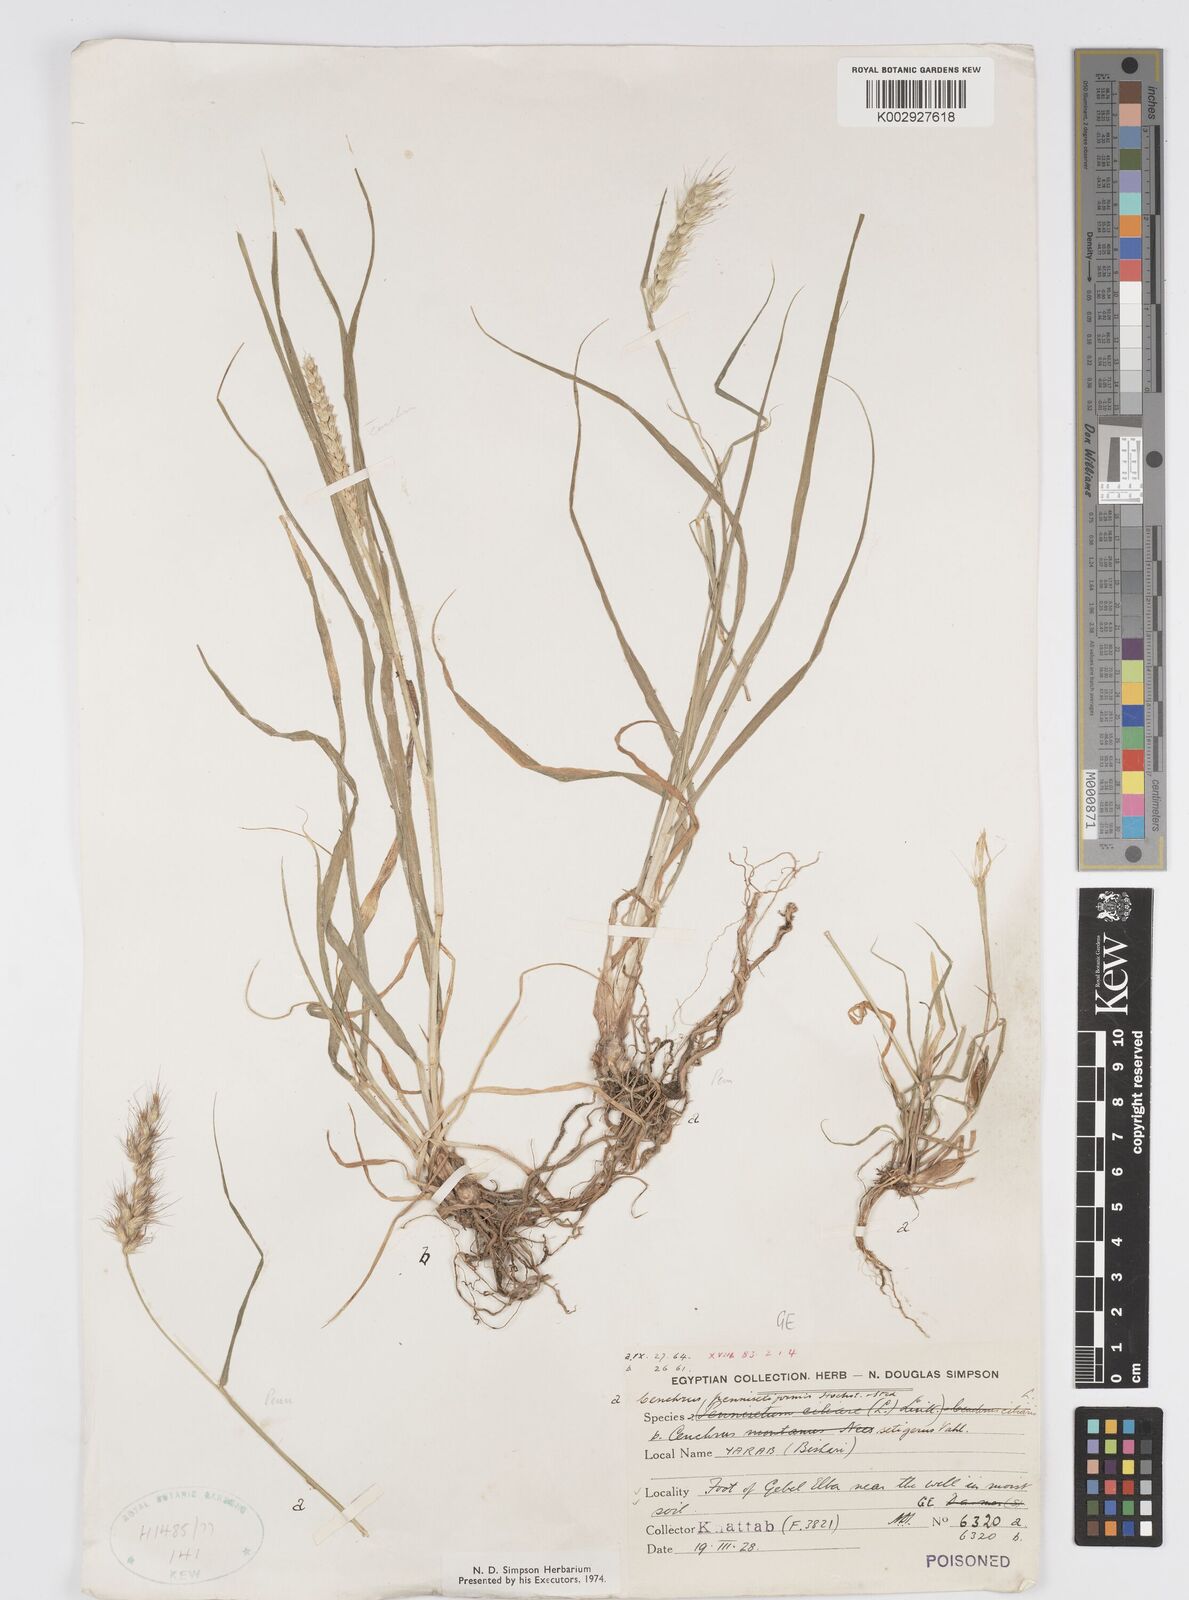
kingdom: Plantae
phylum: Tracheophyta
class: Liliopsida
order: Poales
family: Poaceae
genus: Cenchrus
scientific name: Cenchrus pennisetiformis
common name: Cloncurry
